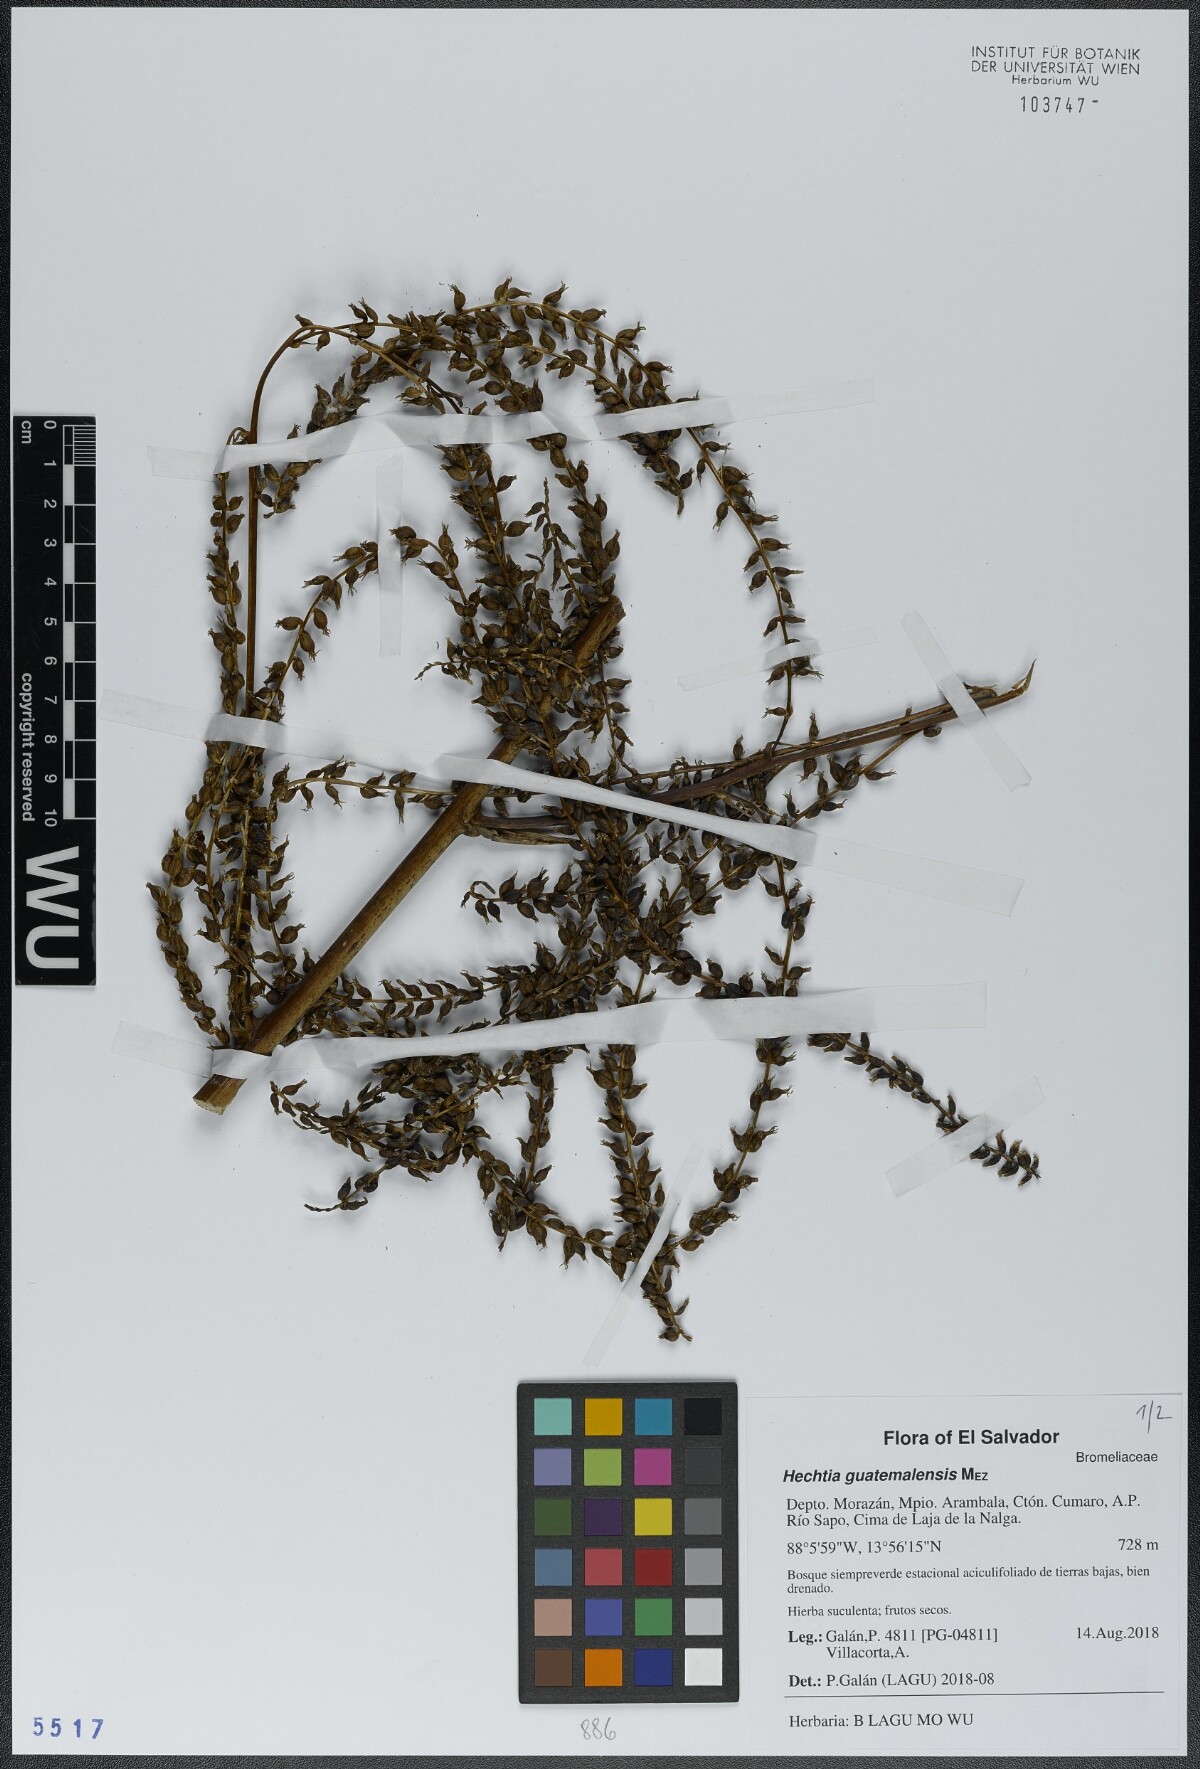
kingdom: Plantae
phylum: Tracheophyta
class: Liliopsida
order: Poales
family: Bromeliaceae
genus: Hechtia
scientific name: Hechtia guatemalensis
